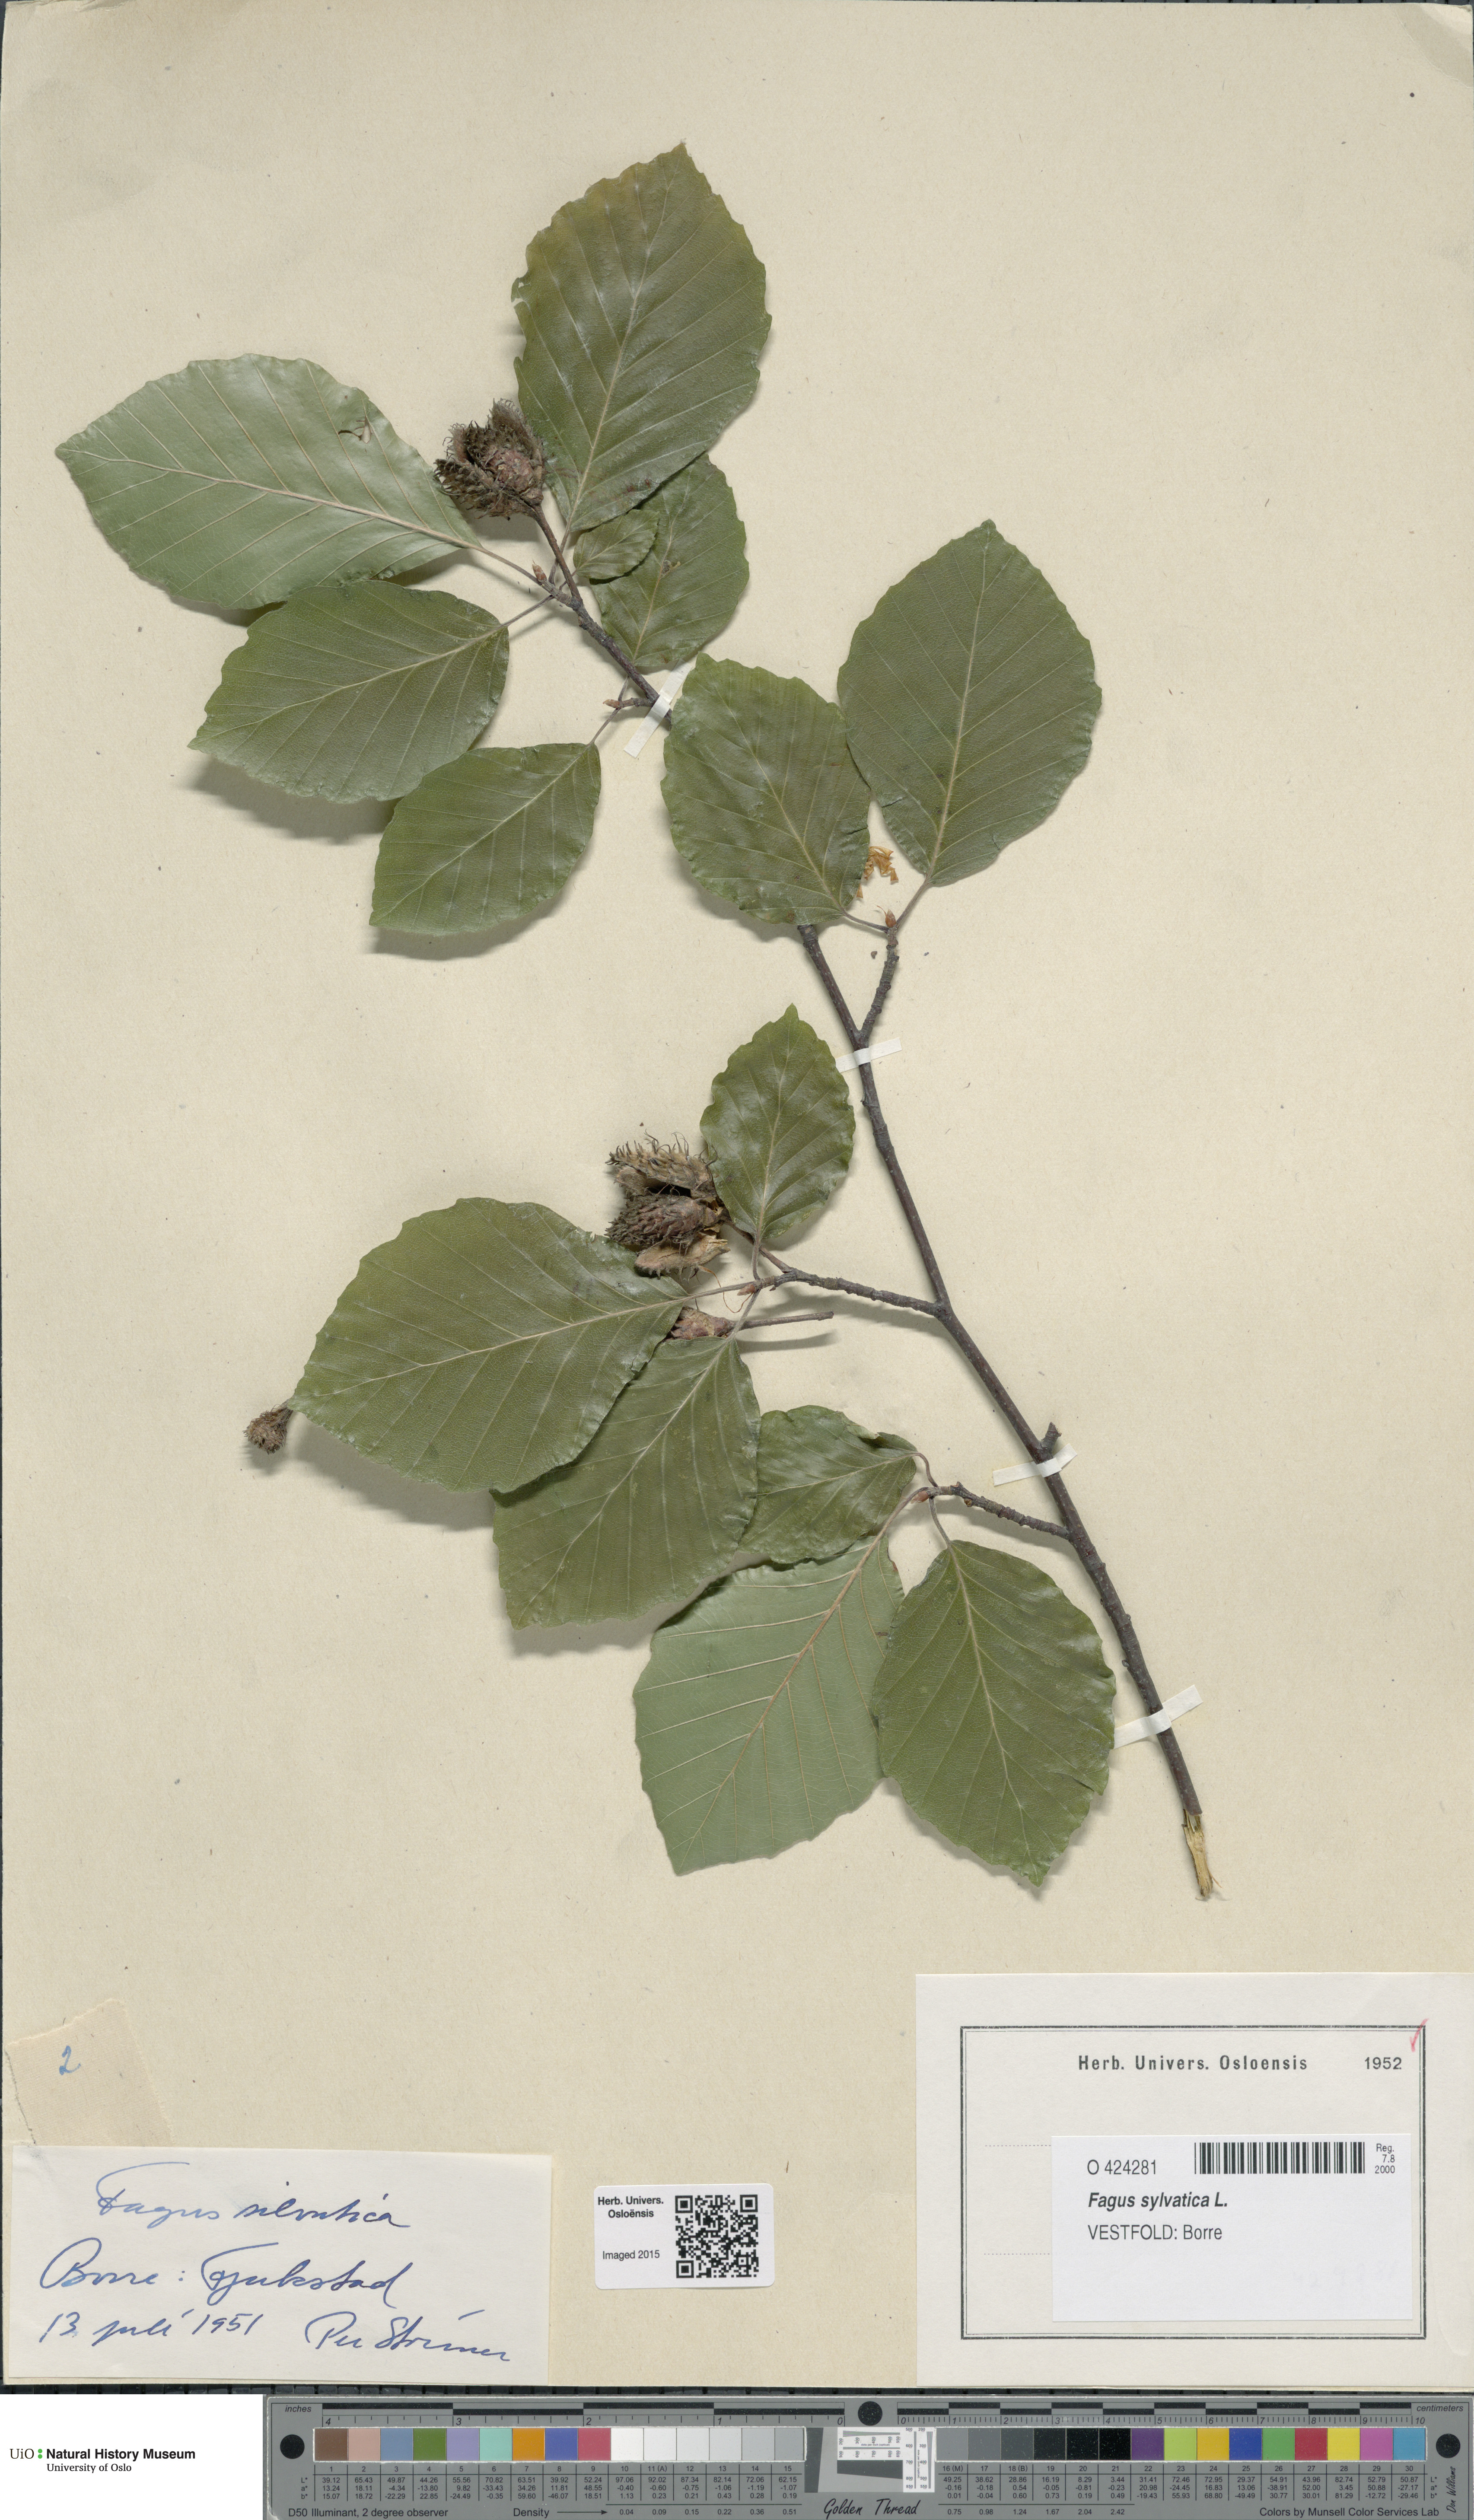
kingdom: Plantae
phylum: Tracheophyta
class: Magnoliopsida
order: Fagales
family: Fagaceae
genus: Fagus
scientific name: Fagus sylvatica
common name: Beech
